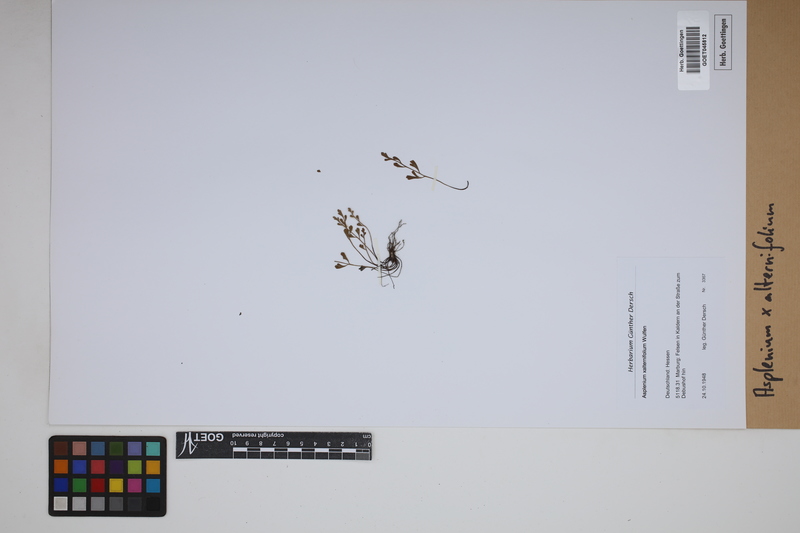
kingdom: Plantae
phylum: Tracheophyta
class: Polypodiopsida
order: Polypodiales
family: Aspleniaceae
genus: Asplenium
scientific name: Asplenium alternifolium
